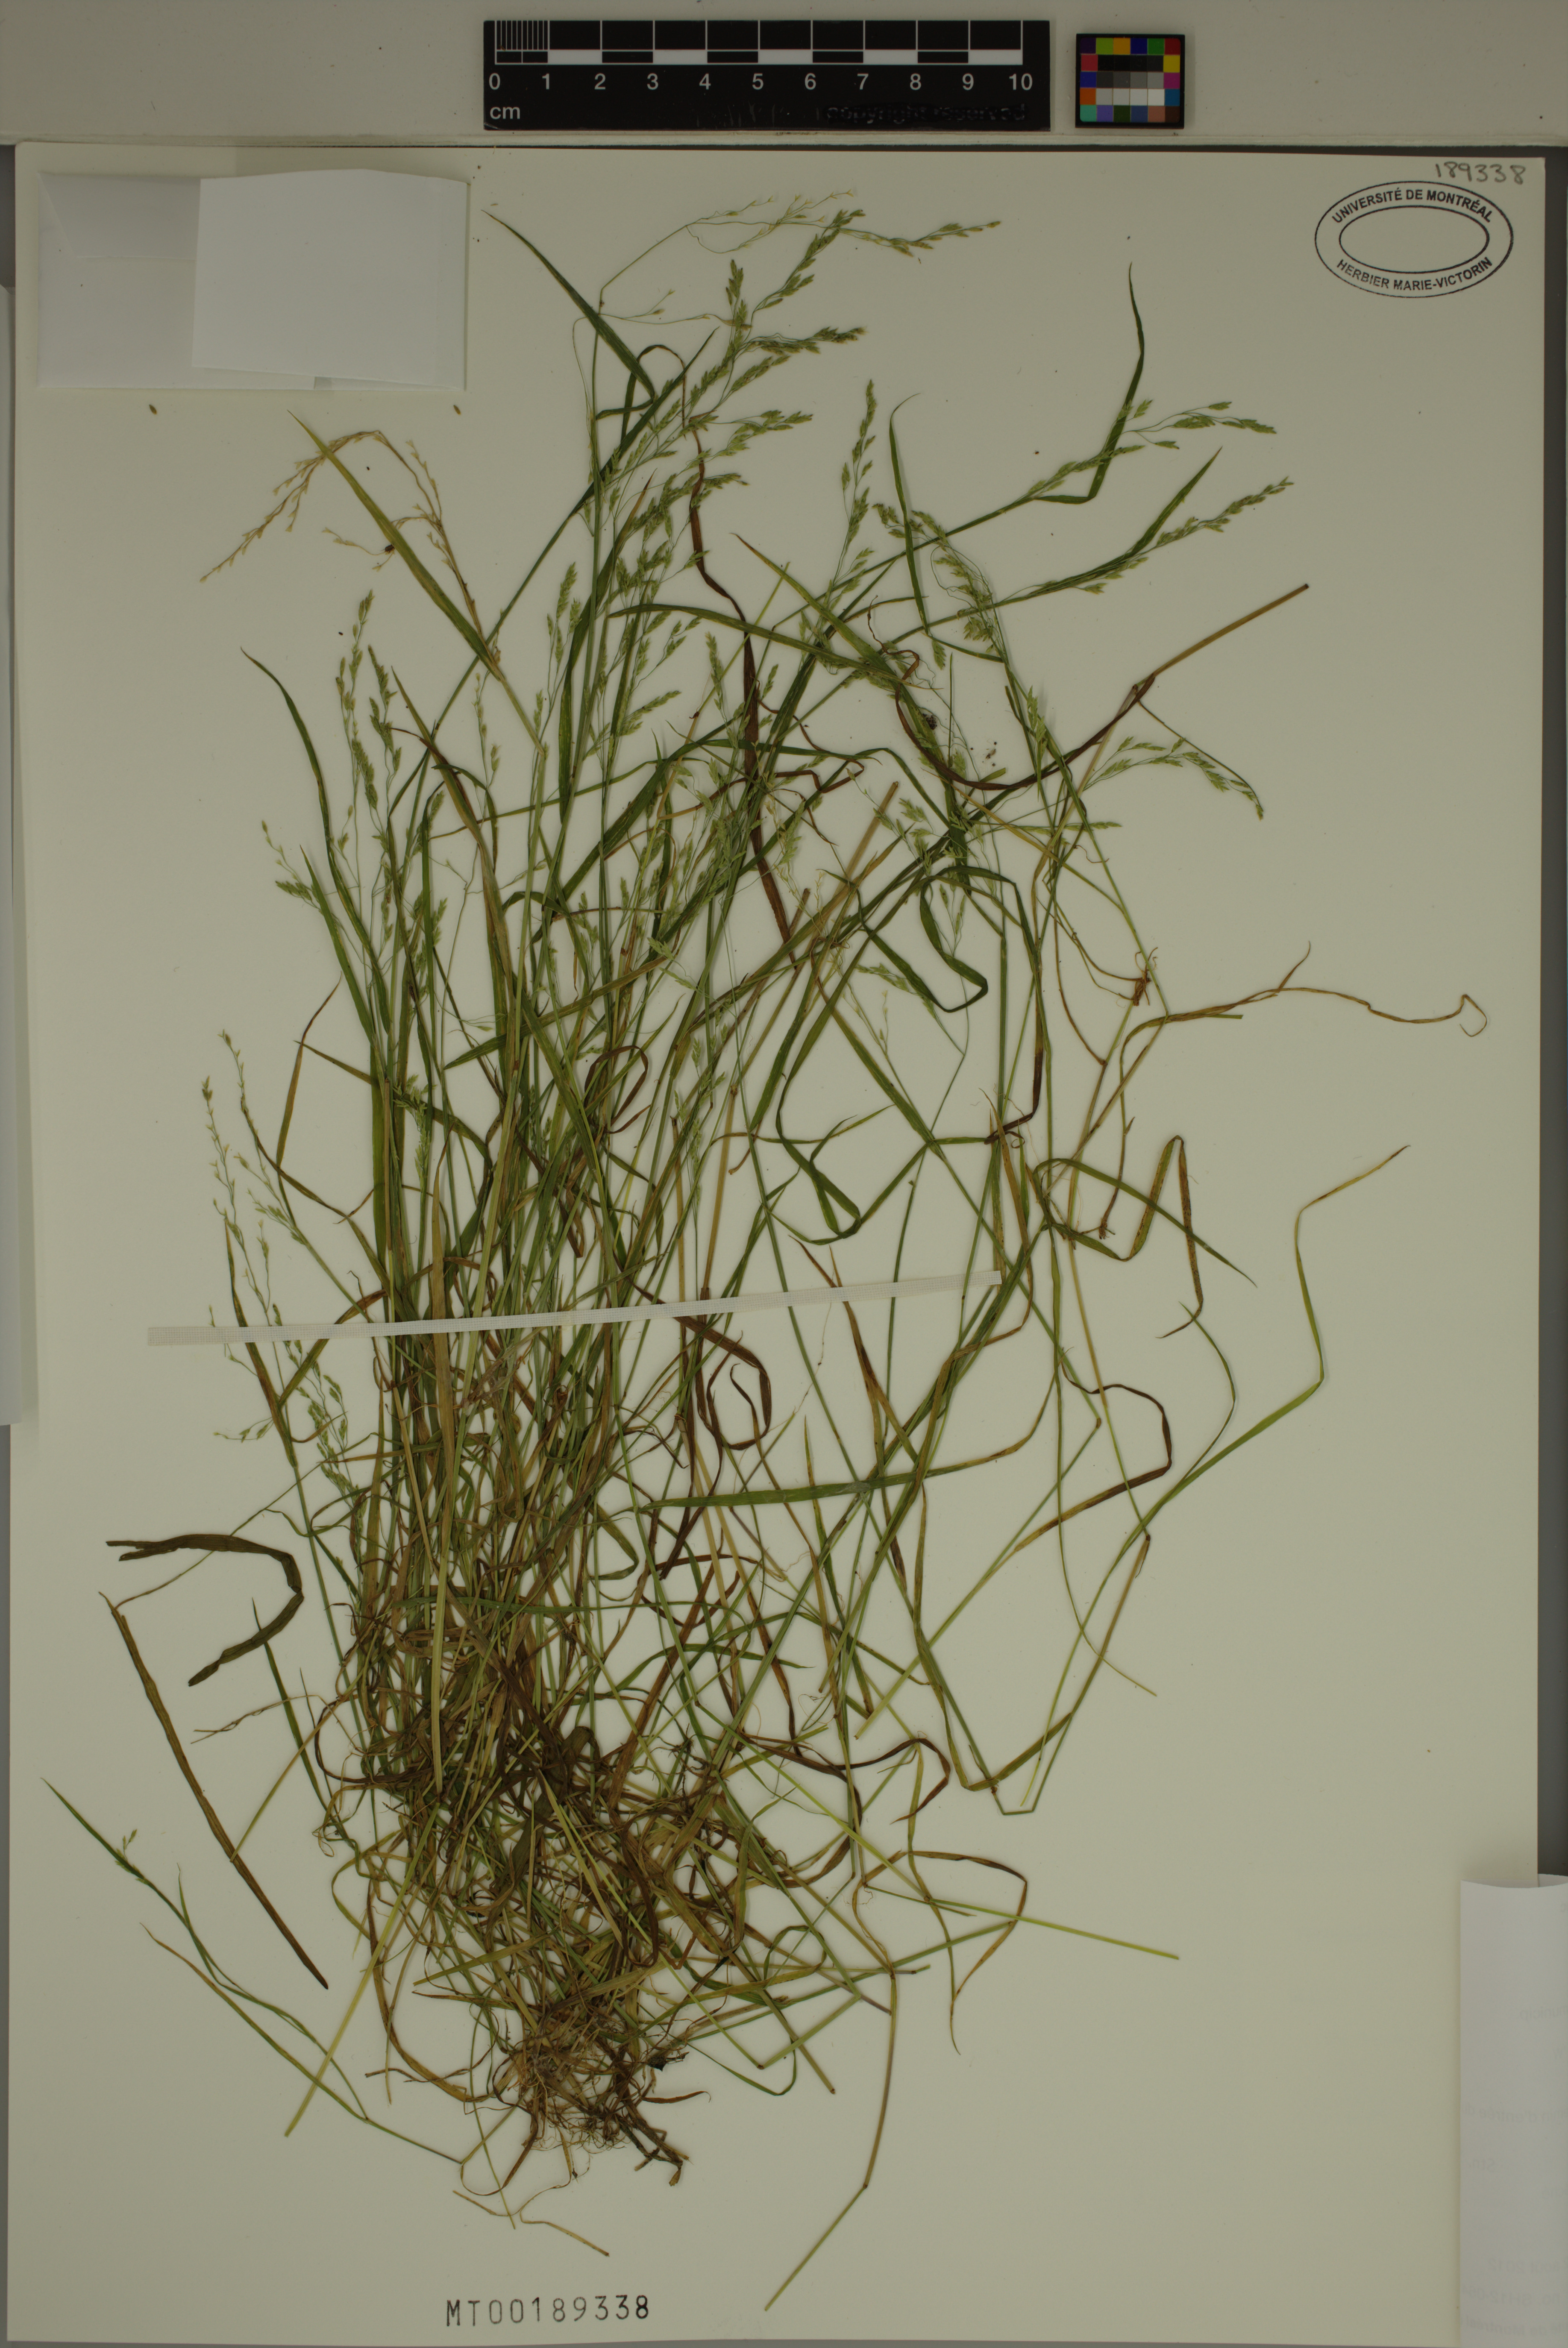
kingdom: Plantae
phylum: Tracheophyta
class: Liliopsida
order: Poales
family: Poaceae
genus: Torreyochloa
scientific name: Torreyochloa pallida
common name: Pale false mannagrass
